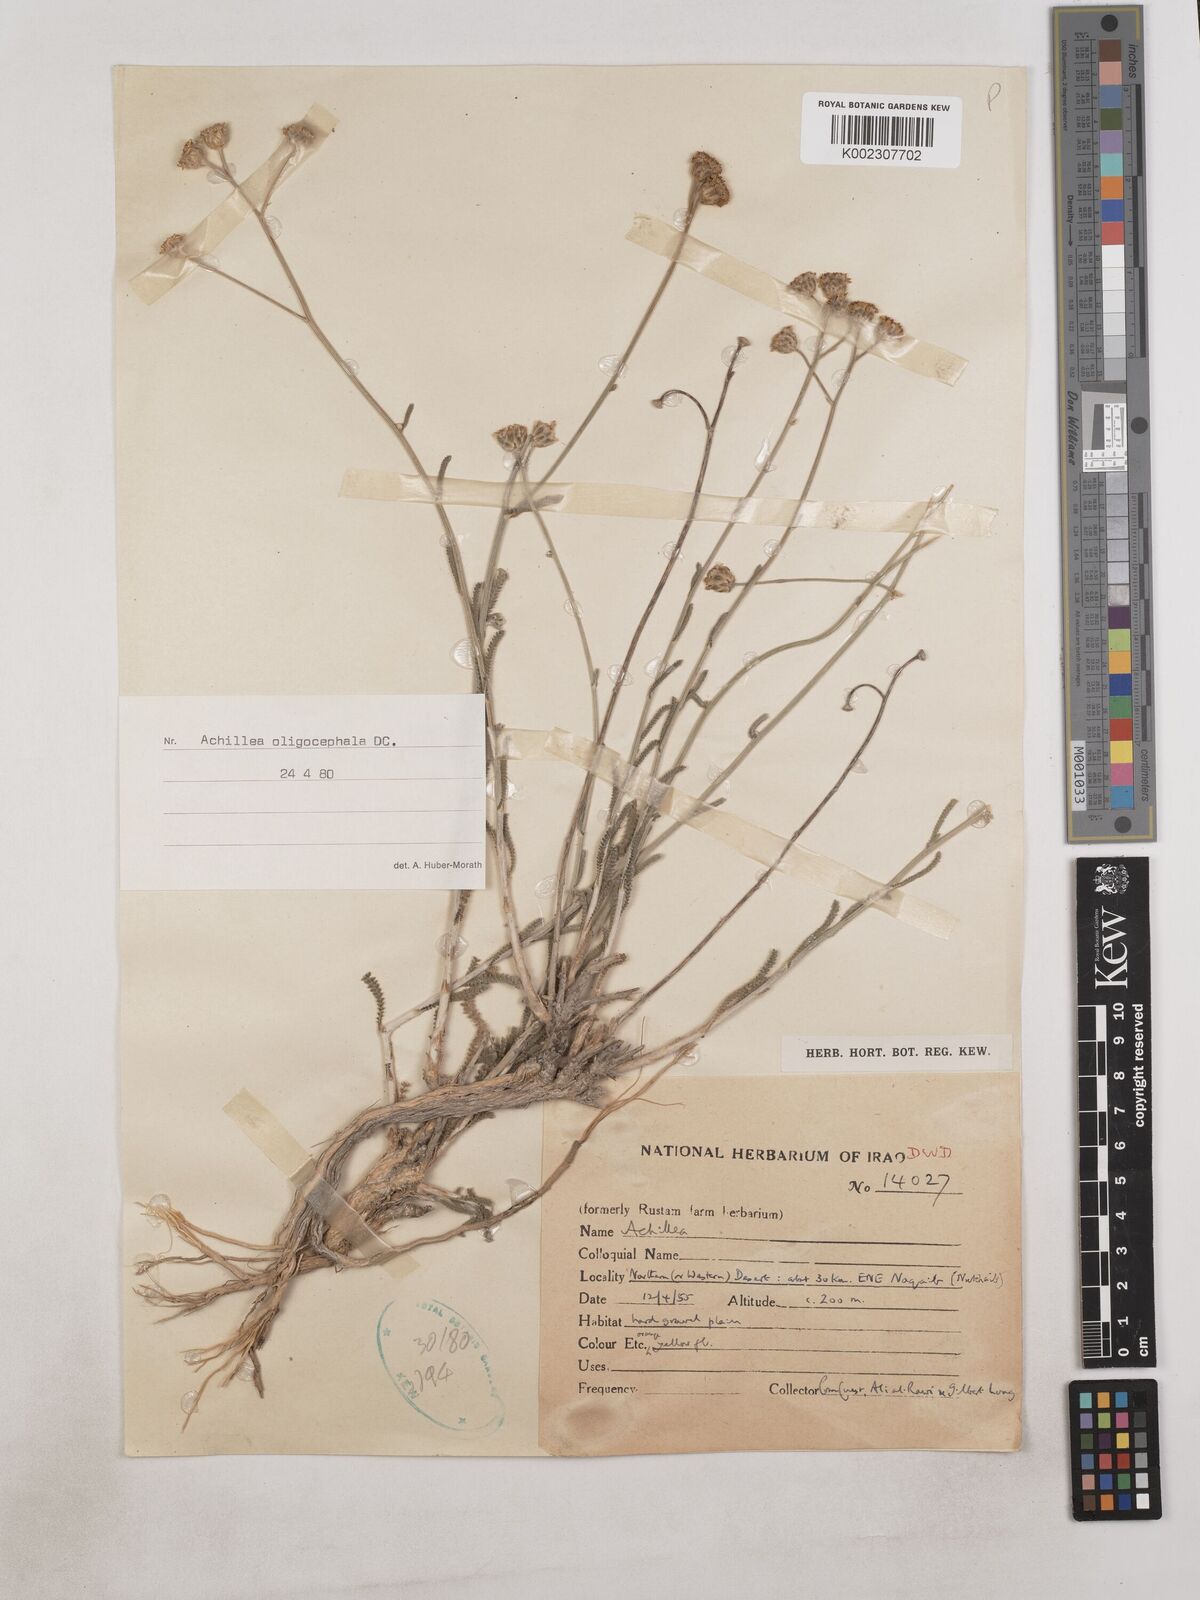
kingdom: Plantae
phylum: Tracheophyta
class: Magnoliopsida
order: Asterales
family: Asteraceae
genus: Achillea
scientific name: Achillea oligocephala
